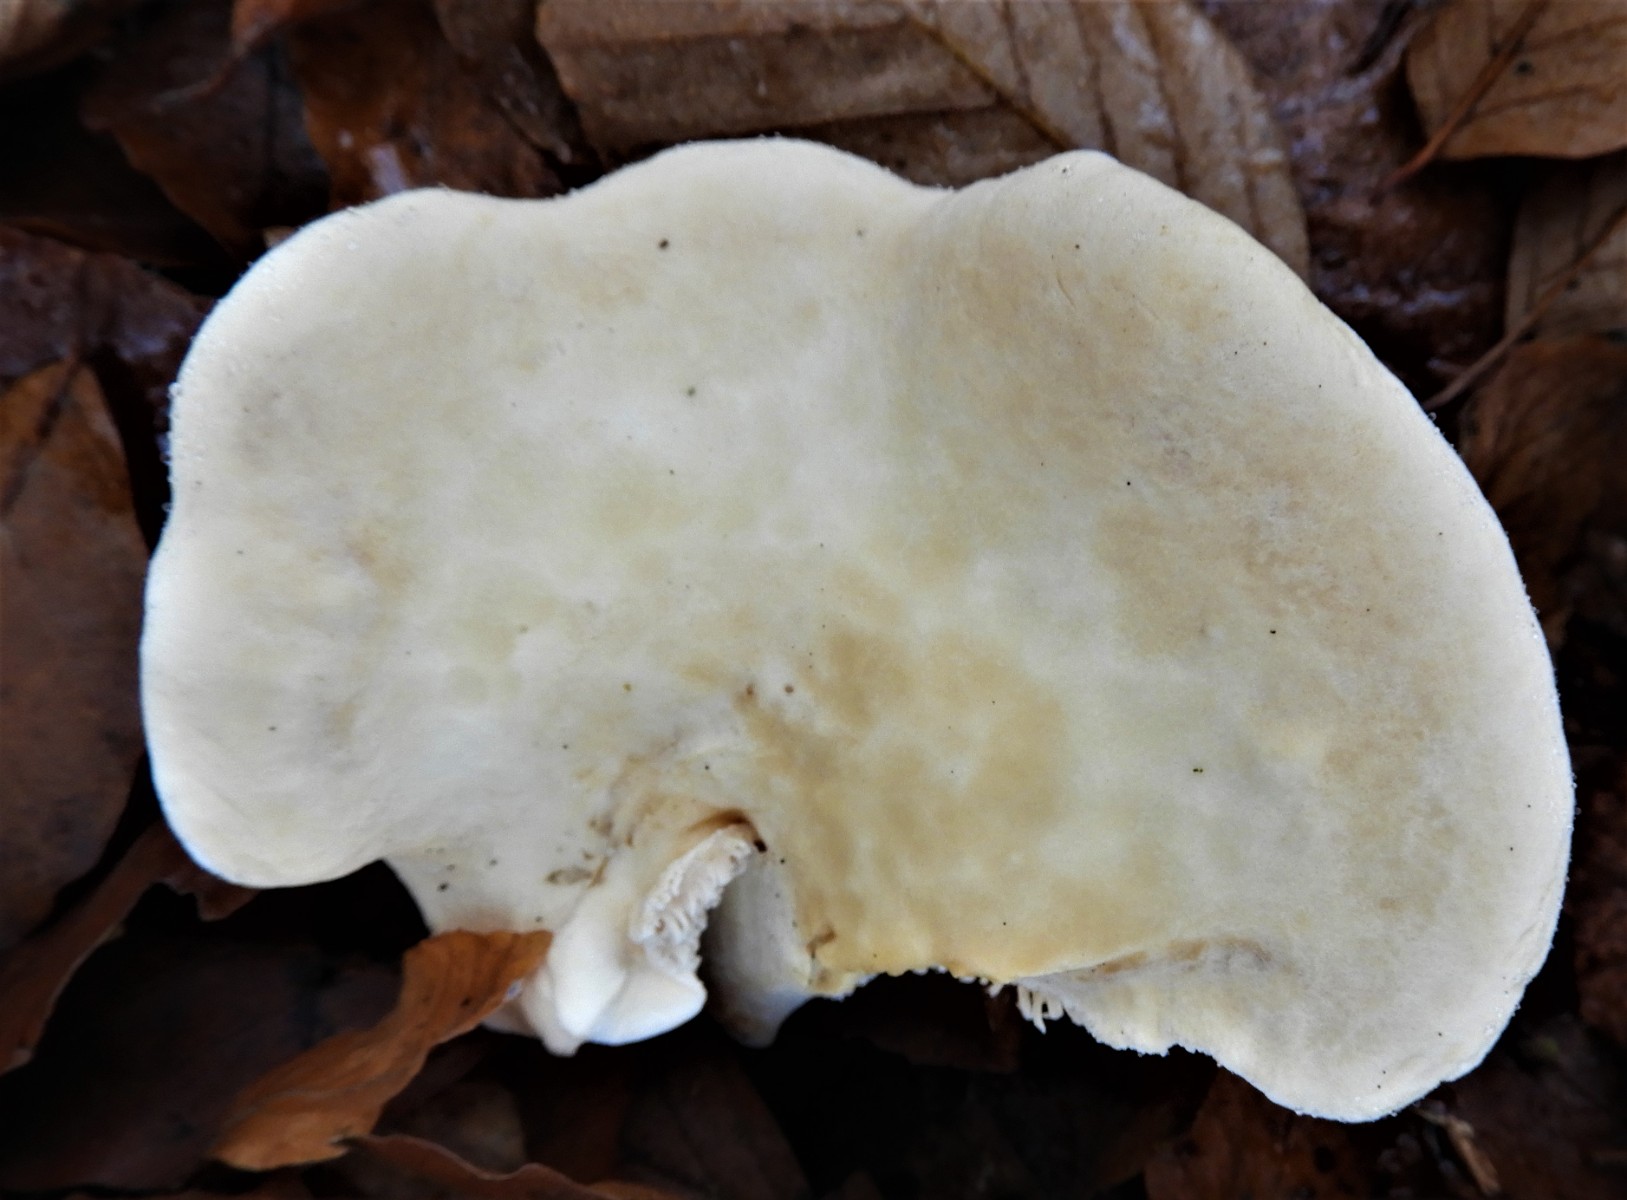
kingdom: Fungi
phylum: Basidiomycota
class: Agaricomycetes
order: Cantharellales
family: Hydnaceae
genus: Hydnum
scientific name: Hydnum
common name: pigsvamp
